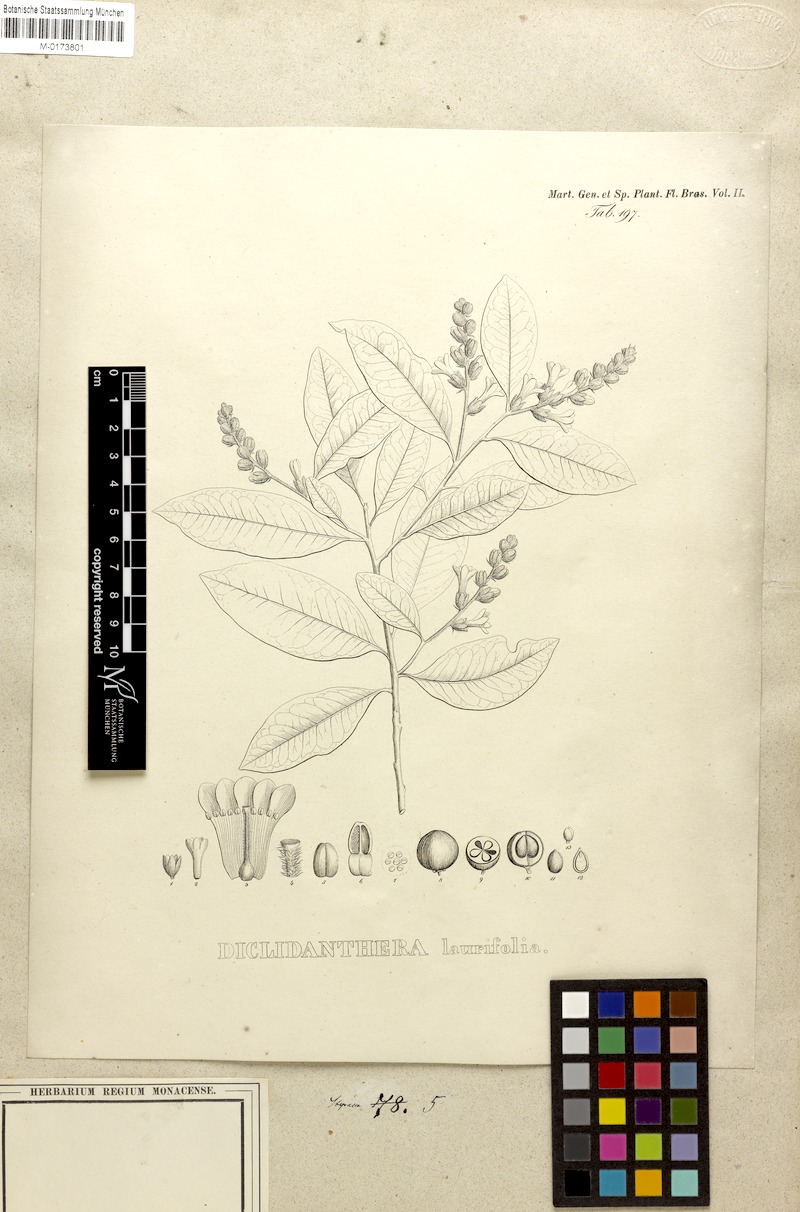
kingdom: Plantae
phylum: Tracheophyta
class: Magnoliopsida
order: Fabales
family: Polygalaceae
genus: Diclidanthera
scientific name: Diclidanthera laurifolia
